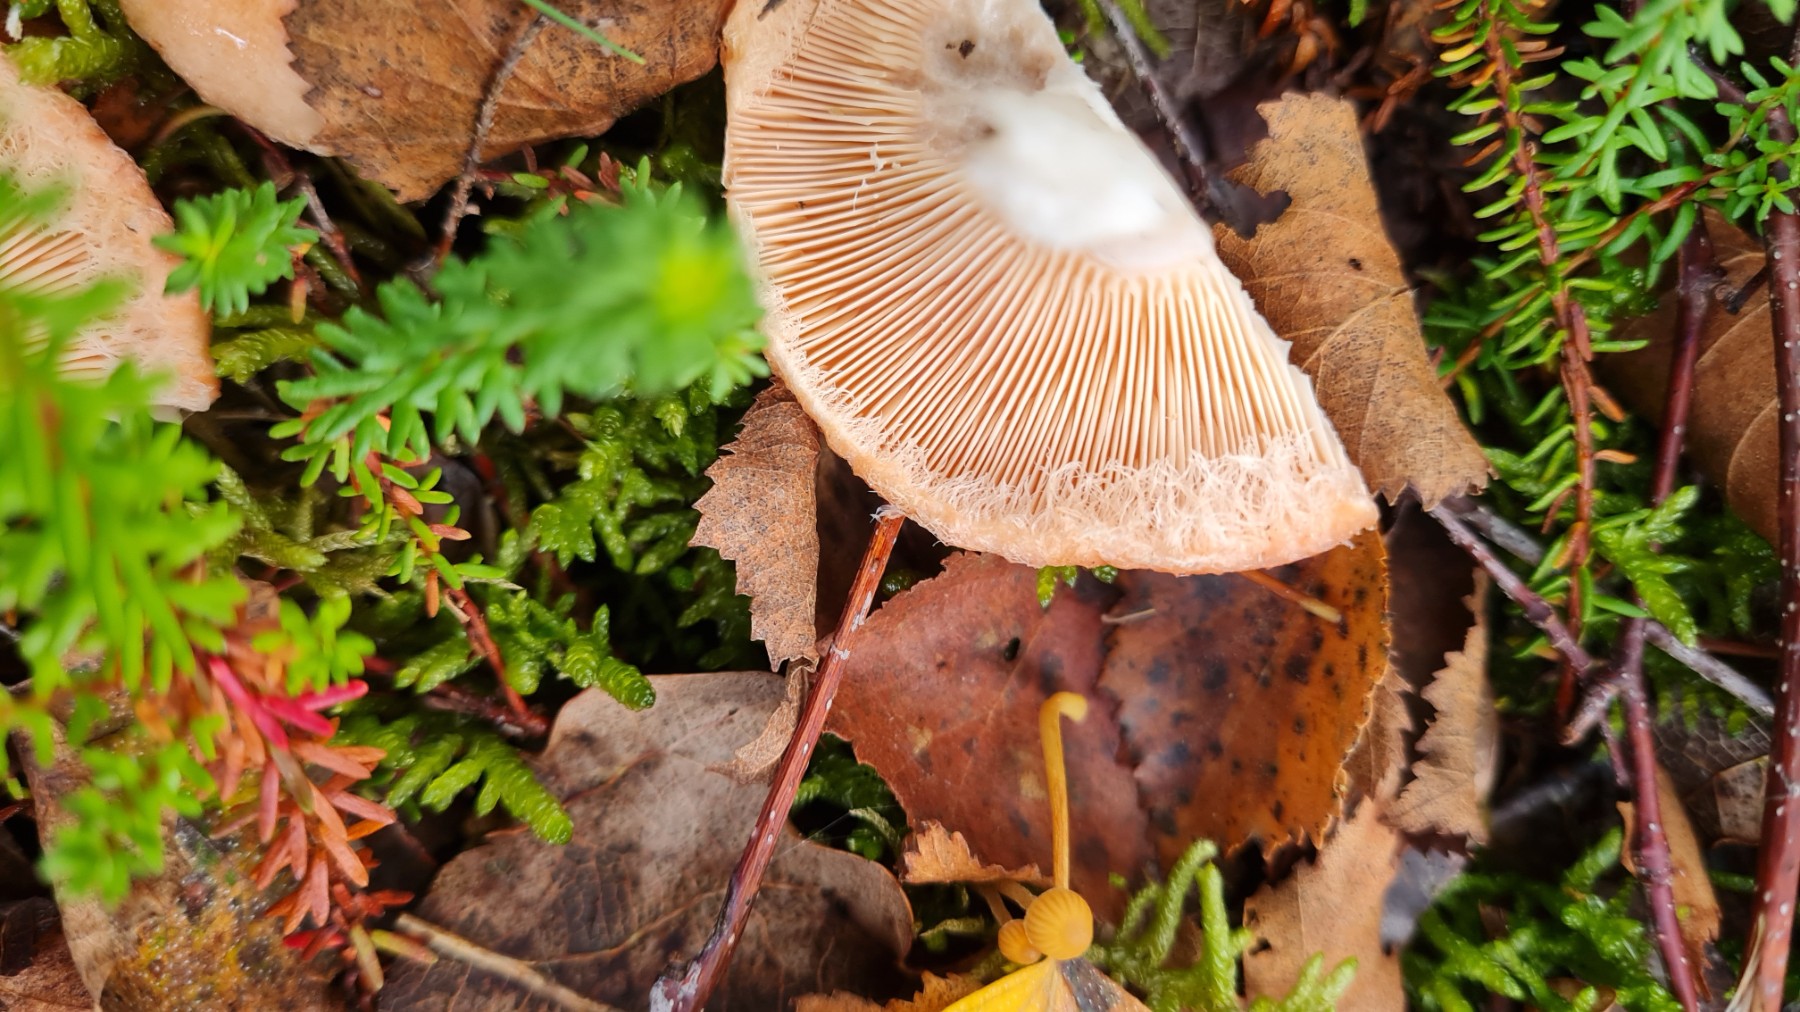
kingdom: Fungi
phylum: Basidiomycota
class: Agaricomycetes
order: Russulales
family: Russulaceae
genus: Lactarius
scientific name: Lactarius torminosus
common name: skægget mælkehat
